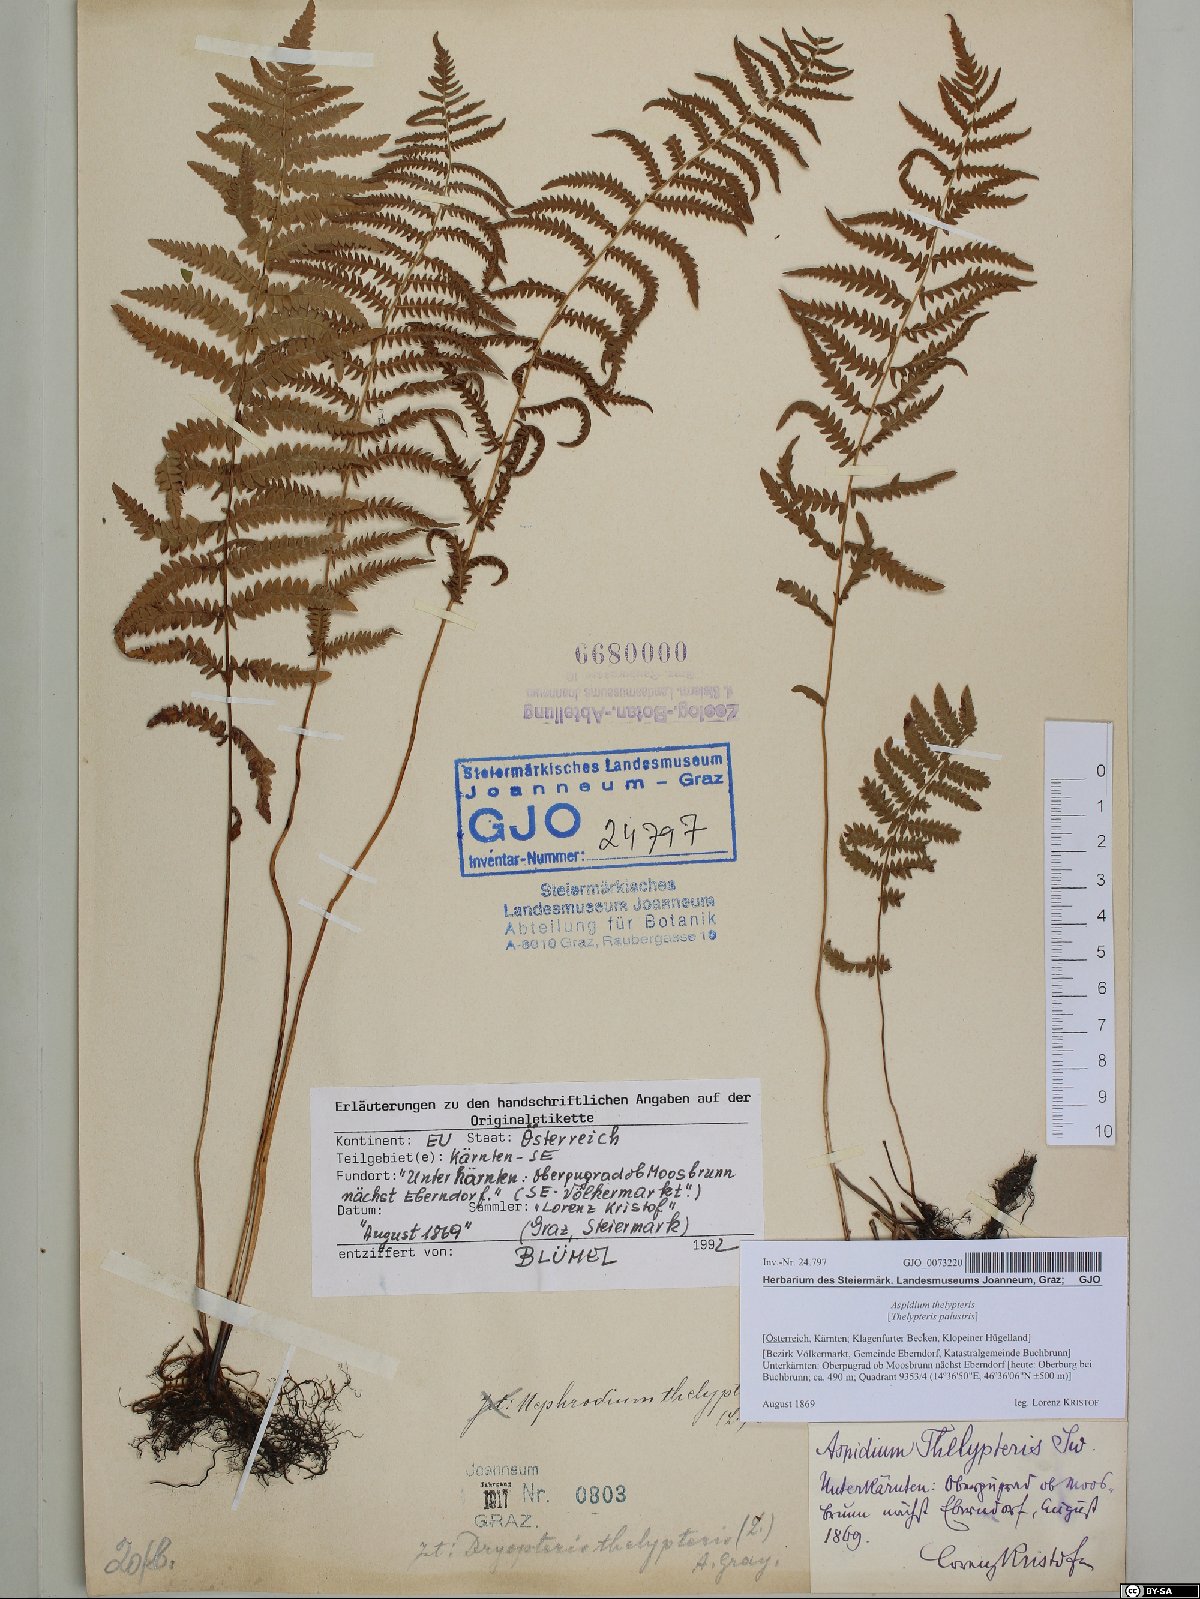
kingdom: Plantae
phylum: Tracheophyta
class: Polypodiopsida
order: Polypodiales
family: Thelypteridaceae
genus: Thelypteris
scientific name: Thelypteris palustris
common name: Marsh fern
